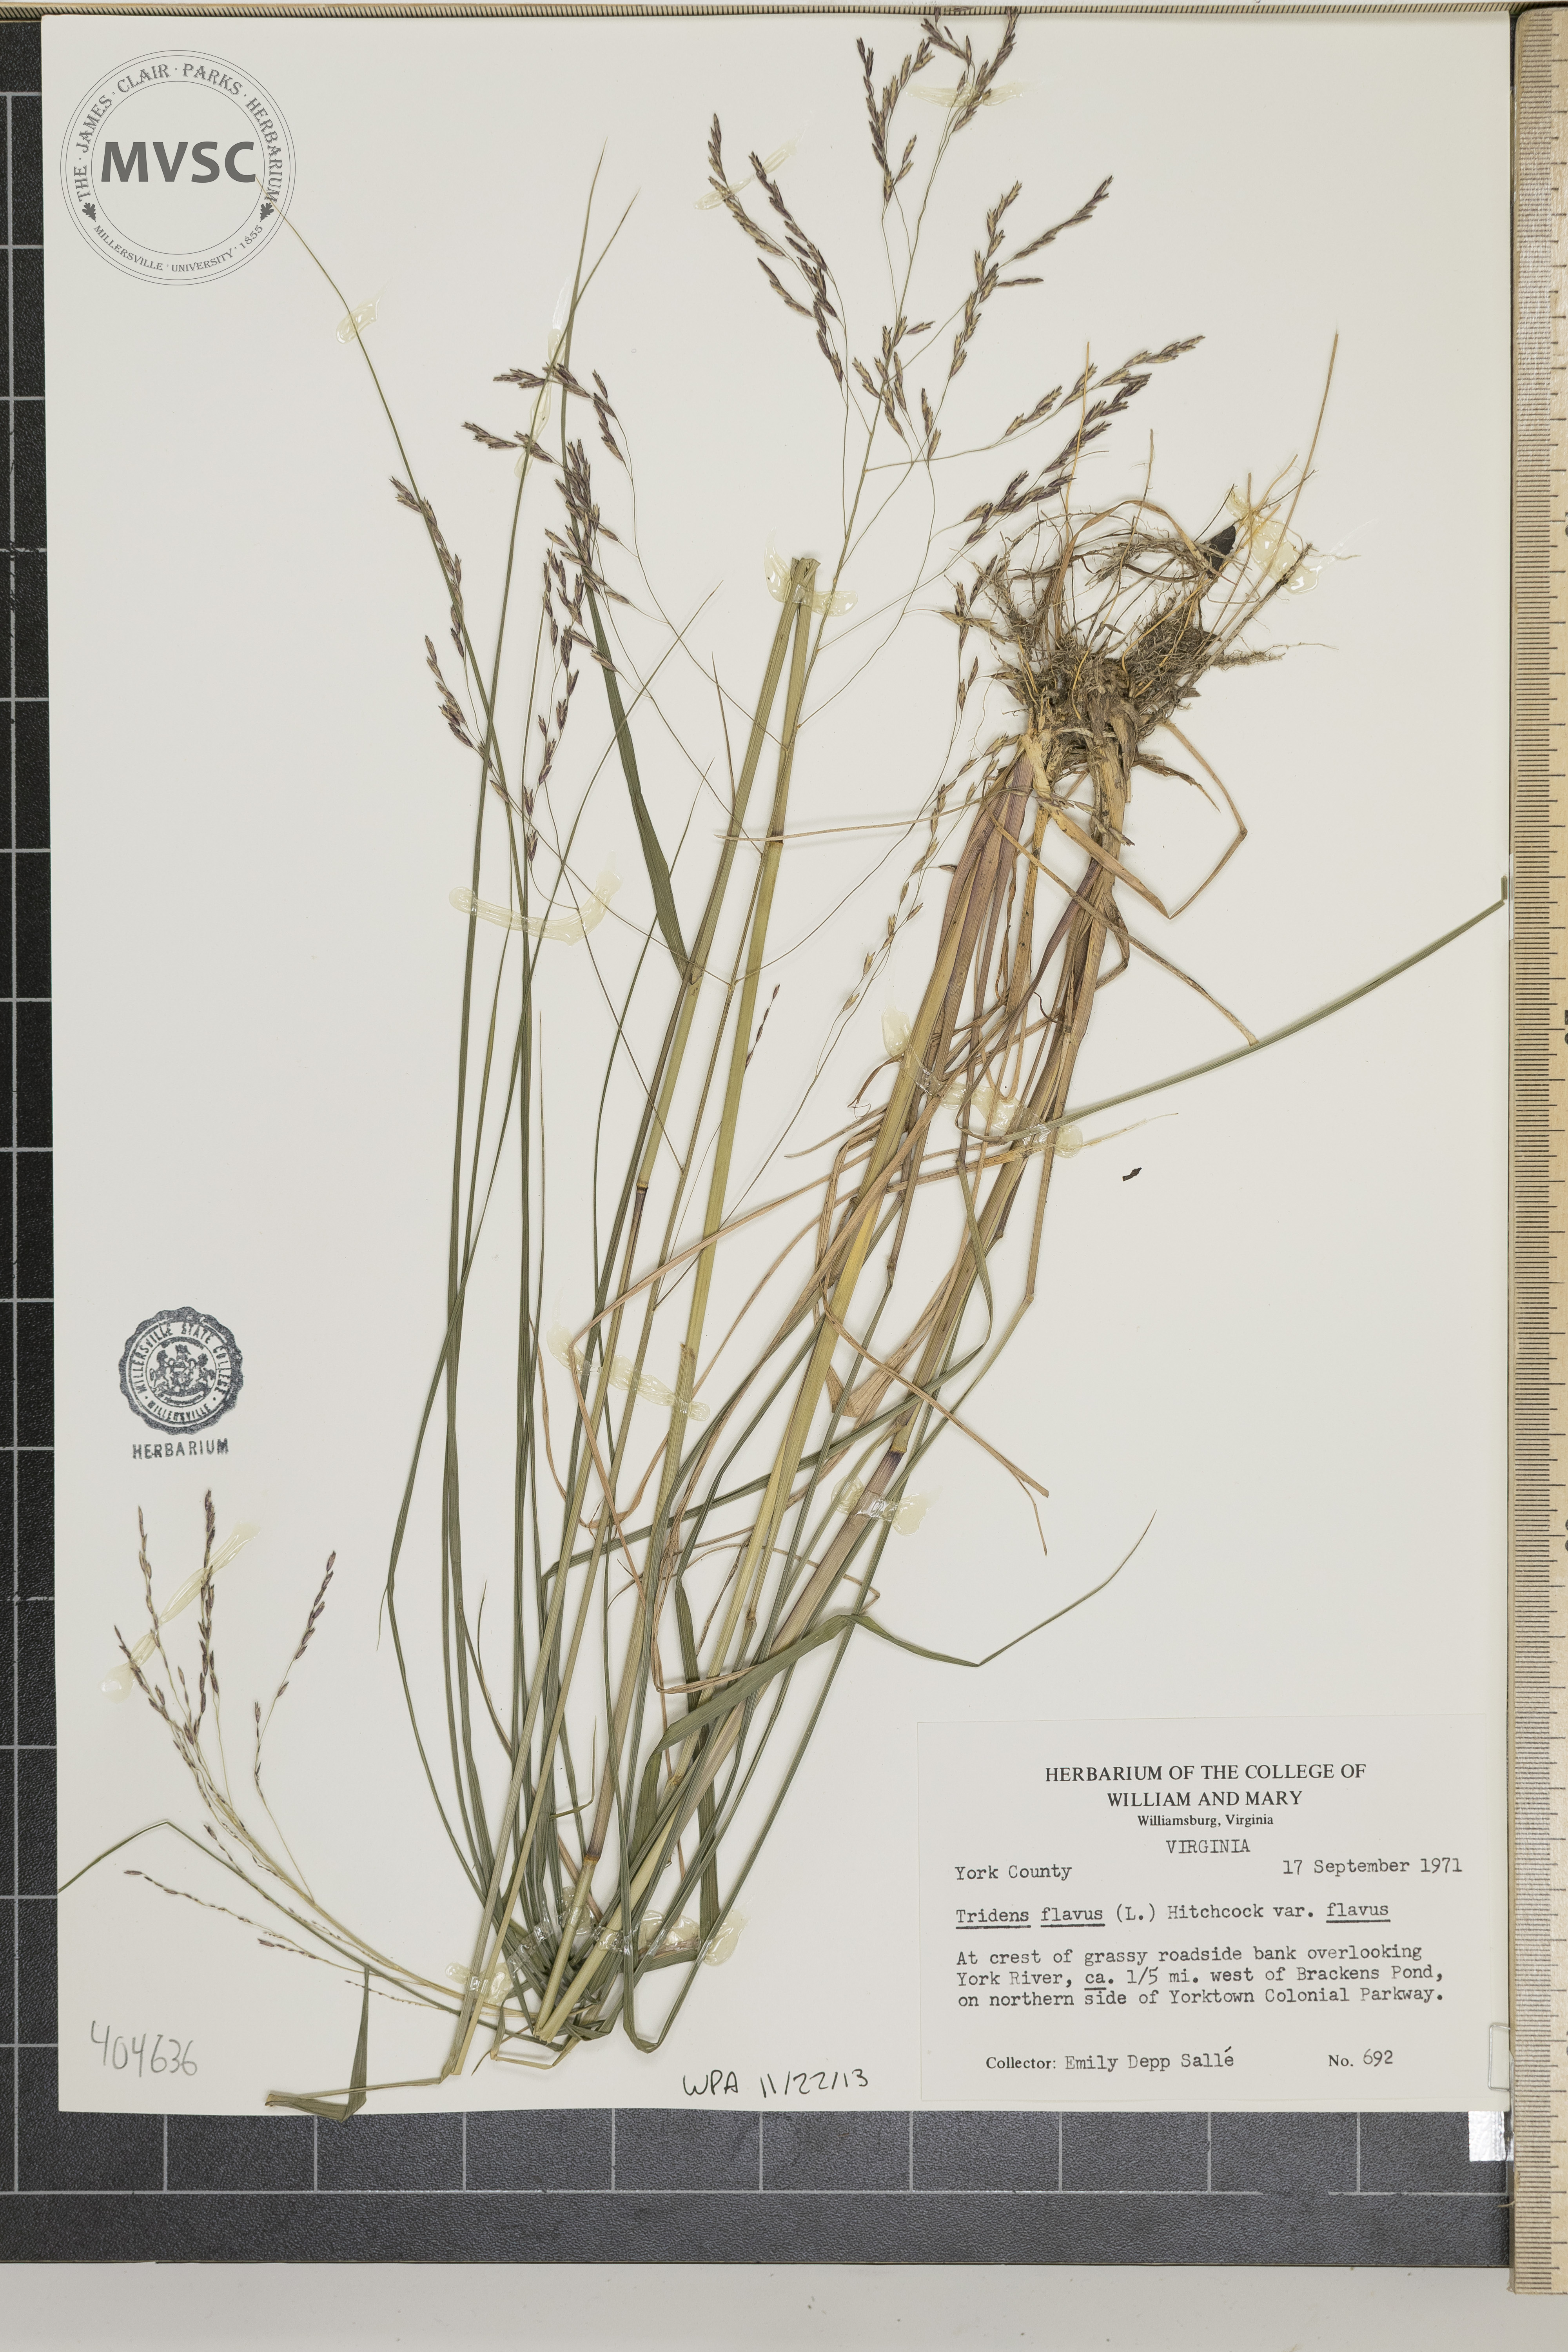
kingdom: Plantae
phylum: Tracheophyta
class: Liliopsida
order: Poales
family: Poaceae
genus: Tridens
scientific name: Tridens flavus
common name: Purpletop
